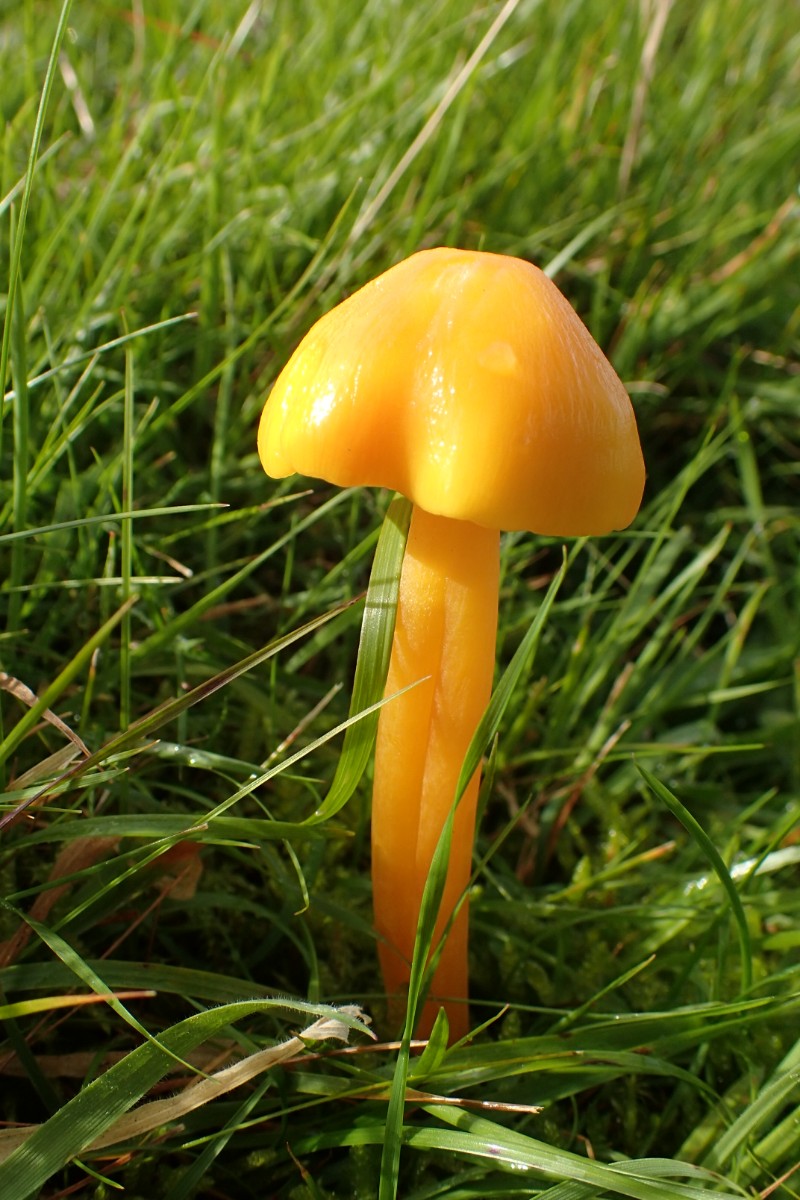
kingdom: Fungi
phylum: Basidiomycota
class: Agaricomycetes
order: Agaricales
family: Hygrophoraceae
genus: Hygrocybe
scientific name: Hygrocybe ceracea
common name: voksgul vokshat
